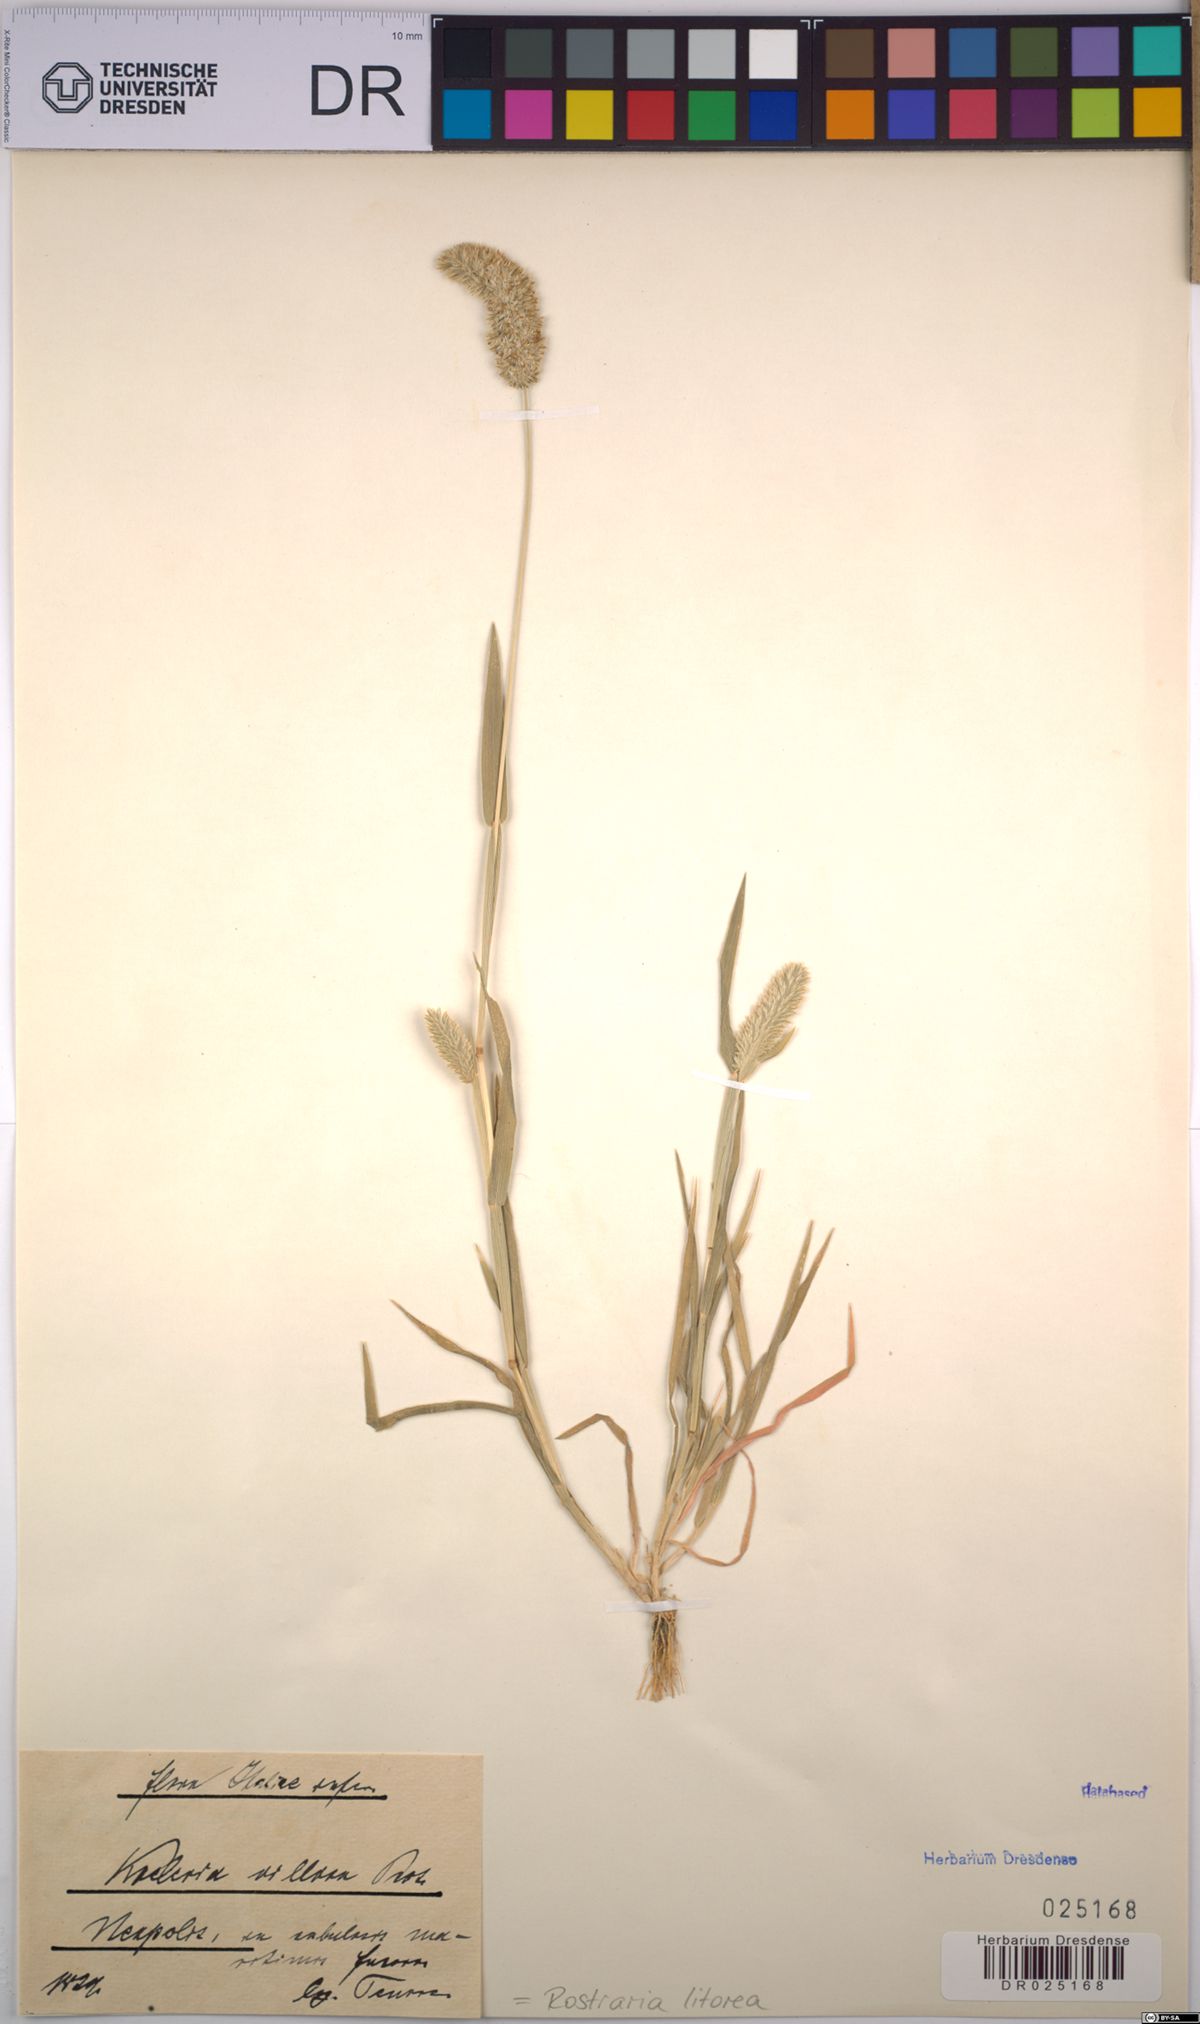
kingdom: Plantae
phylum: Tracheophyta
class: Liliopsida
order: Poales
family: Poaceae
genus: Rostraria
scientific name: Rostraria litorea
